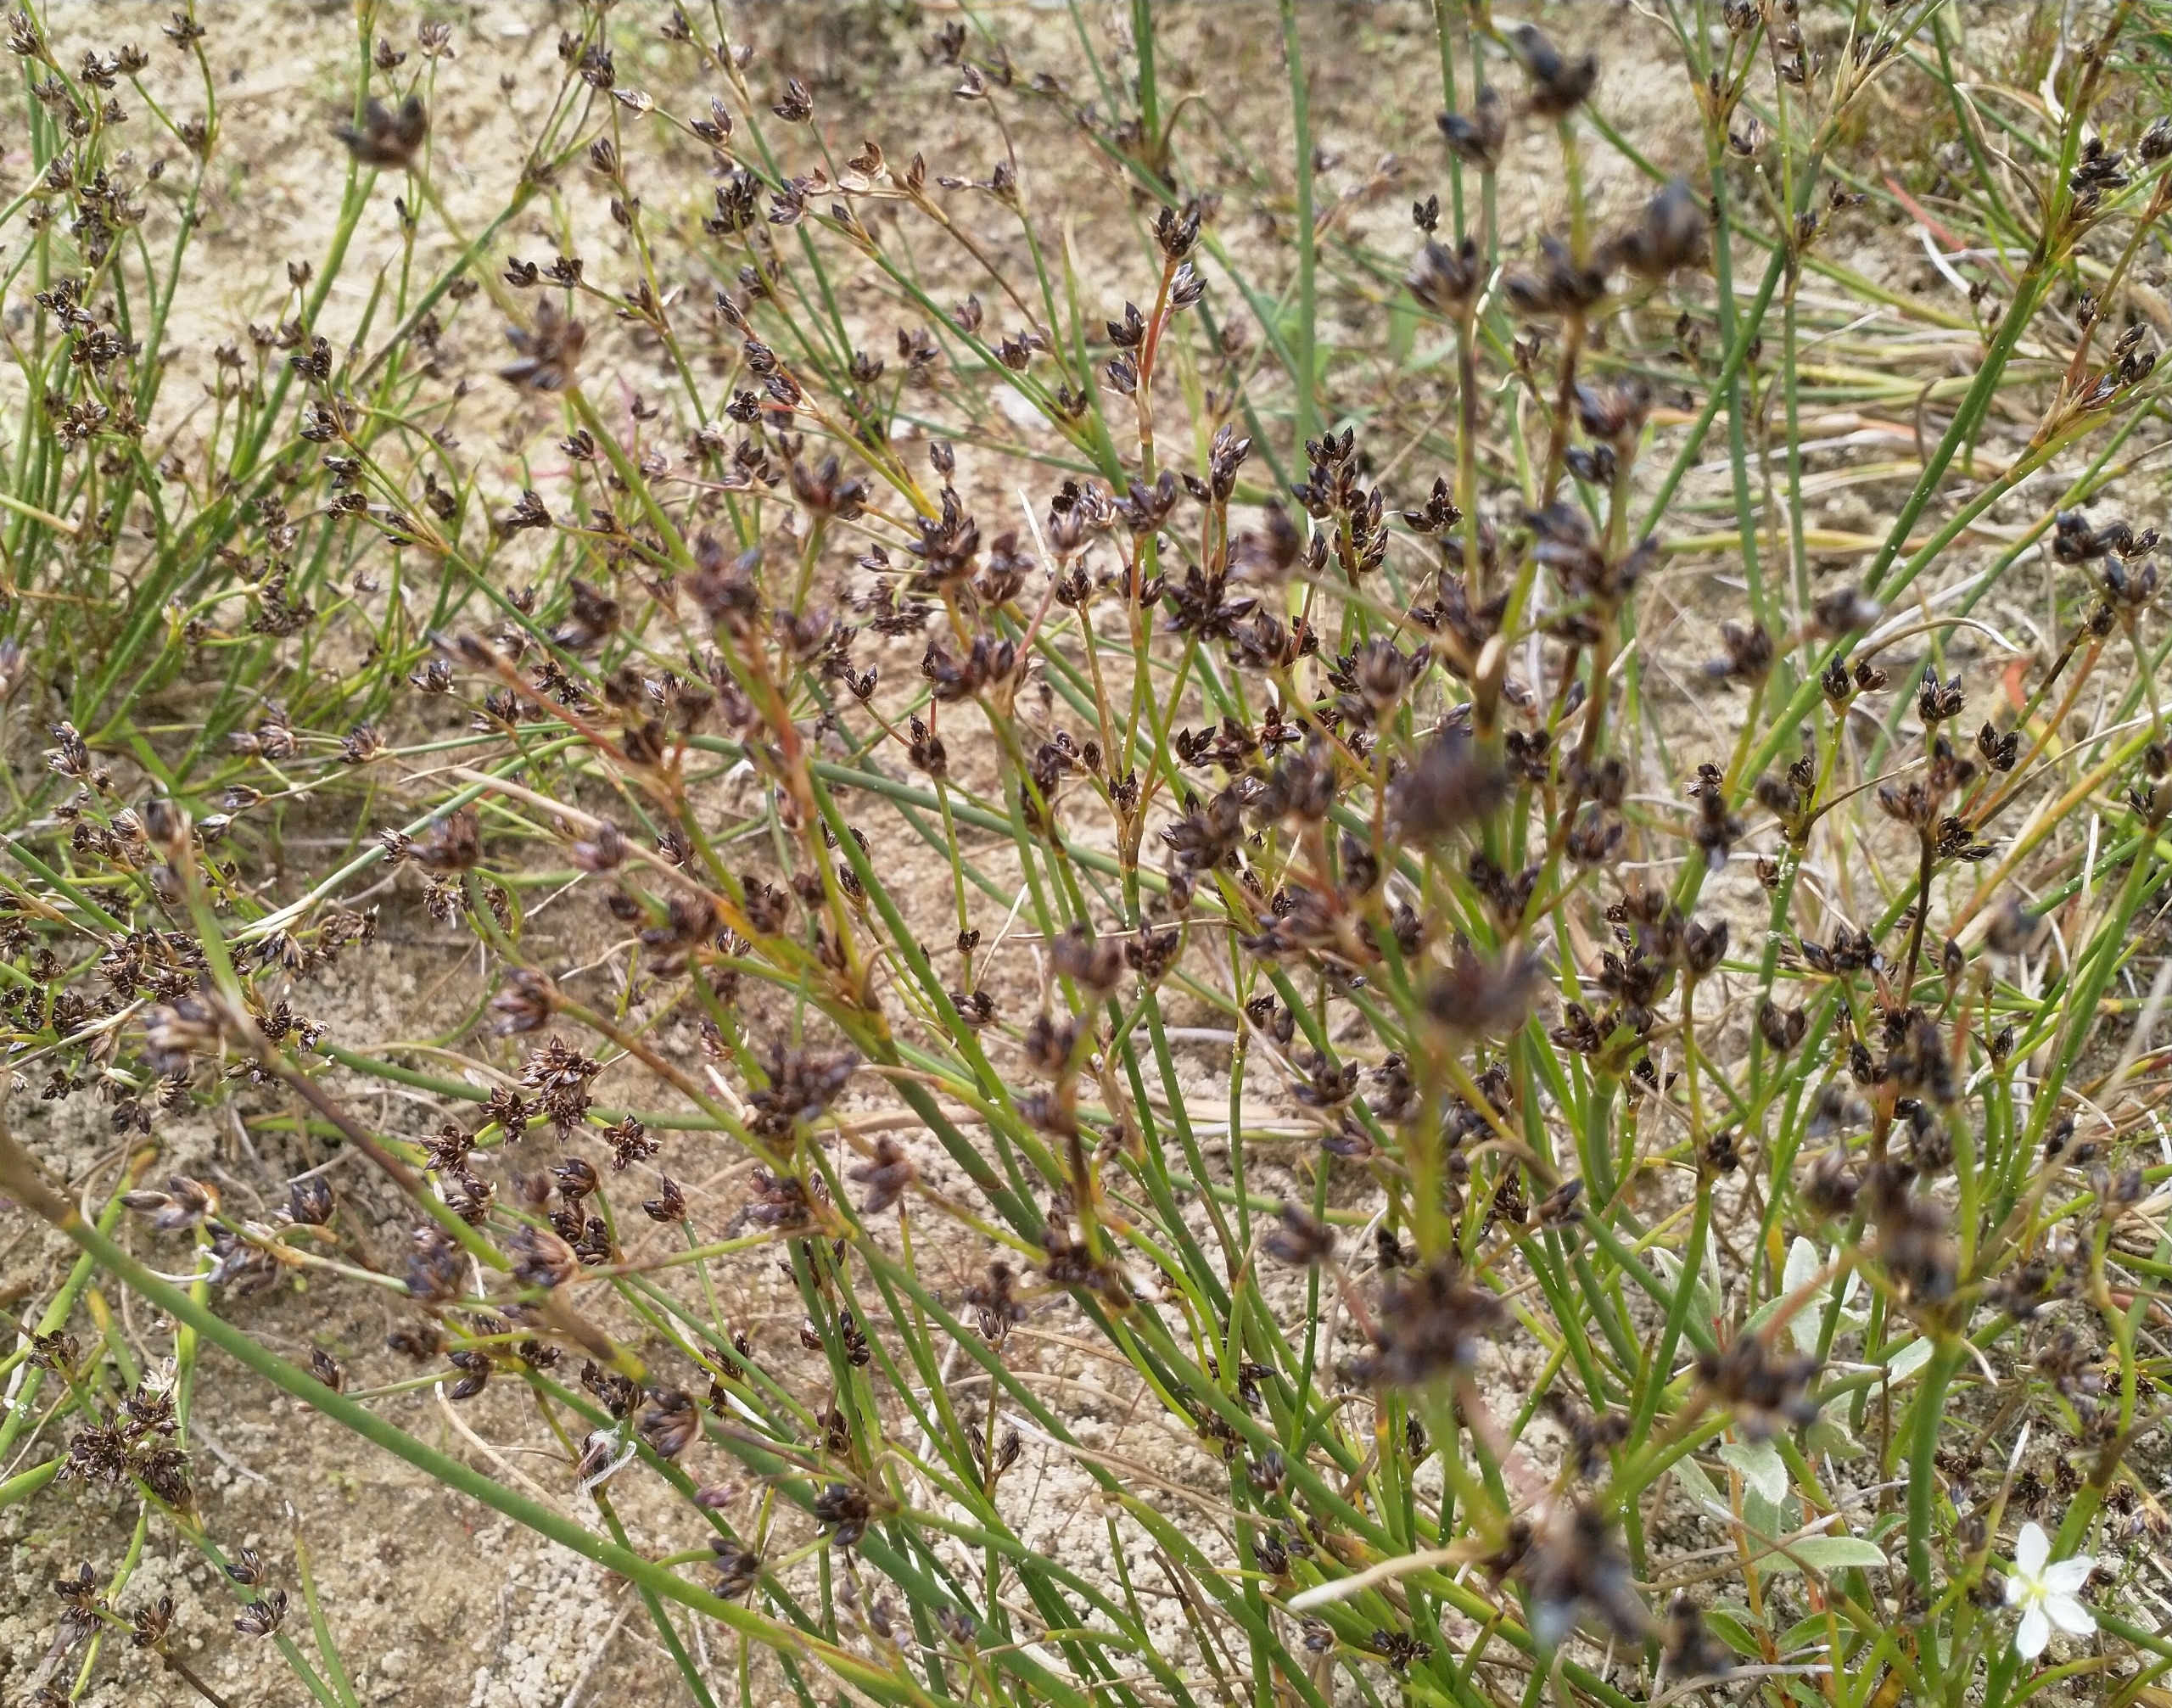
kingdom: Plantae
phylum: Tracheophyta
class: Liliopsida
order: Poales
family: Juncaceae
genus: Juncus
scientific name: Juncus articulatus
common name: Glanskapslet siv
